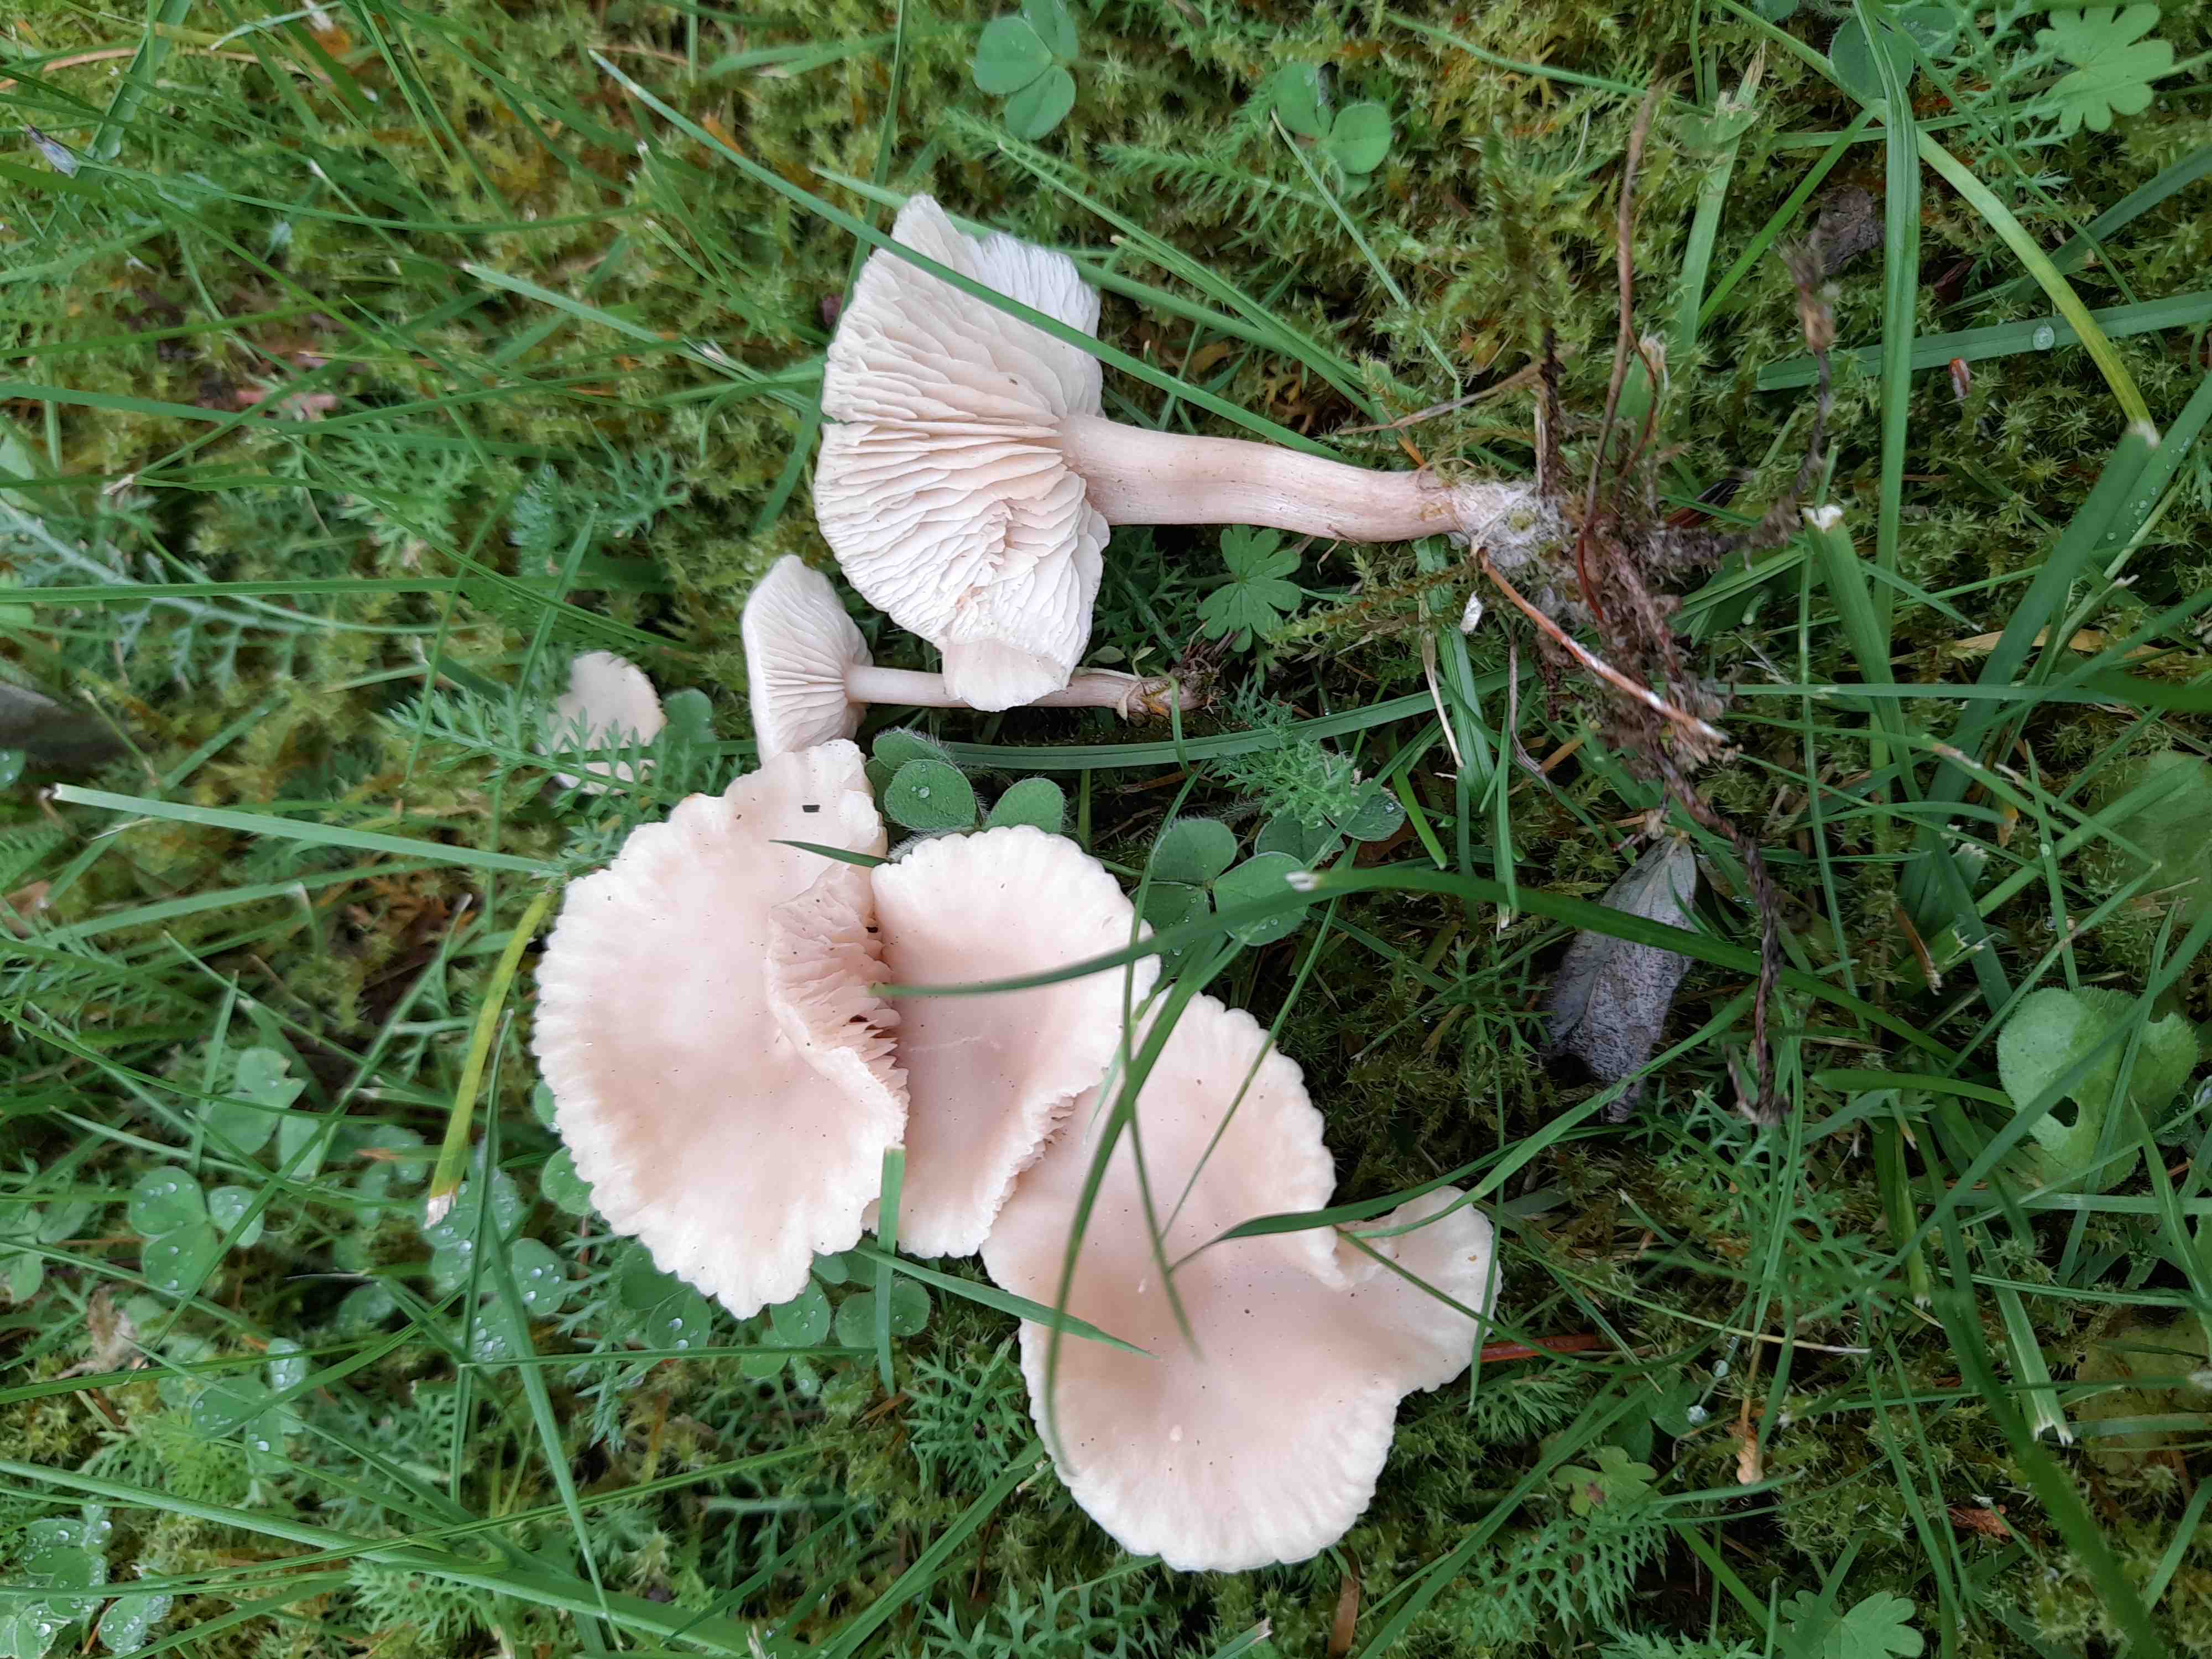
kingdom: Fungi
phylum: Basidiomycota
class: Agaricomycetes
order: Agaricales
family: Tricholomataceae
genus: Clitocybe
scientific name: Clitocybe fragrans
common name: vellugtende tragthat
